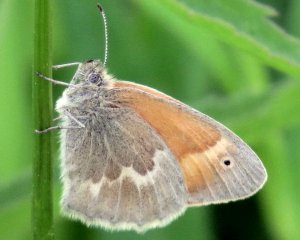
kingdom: Animalia
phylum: Arthropoda
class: Insecta
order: Lepidoptera
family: Nymphalidae
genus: Coenonympha
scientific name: Coenonympha tullia
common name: Large Heath
